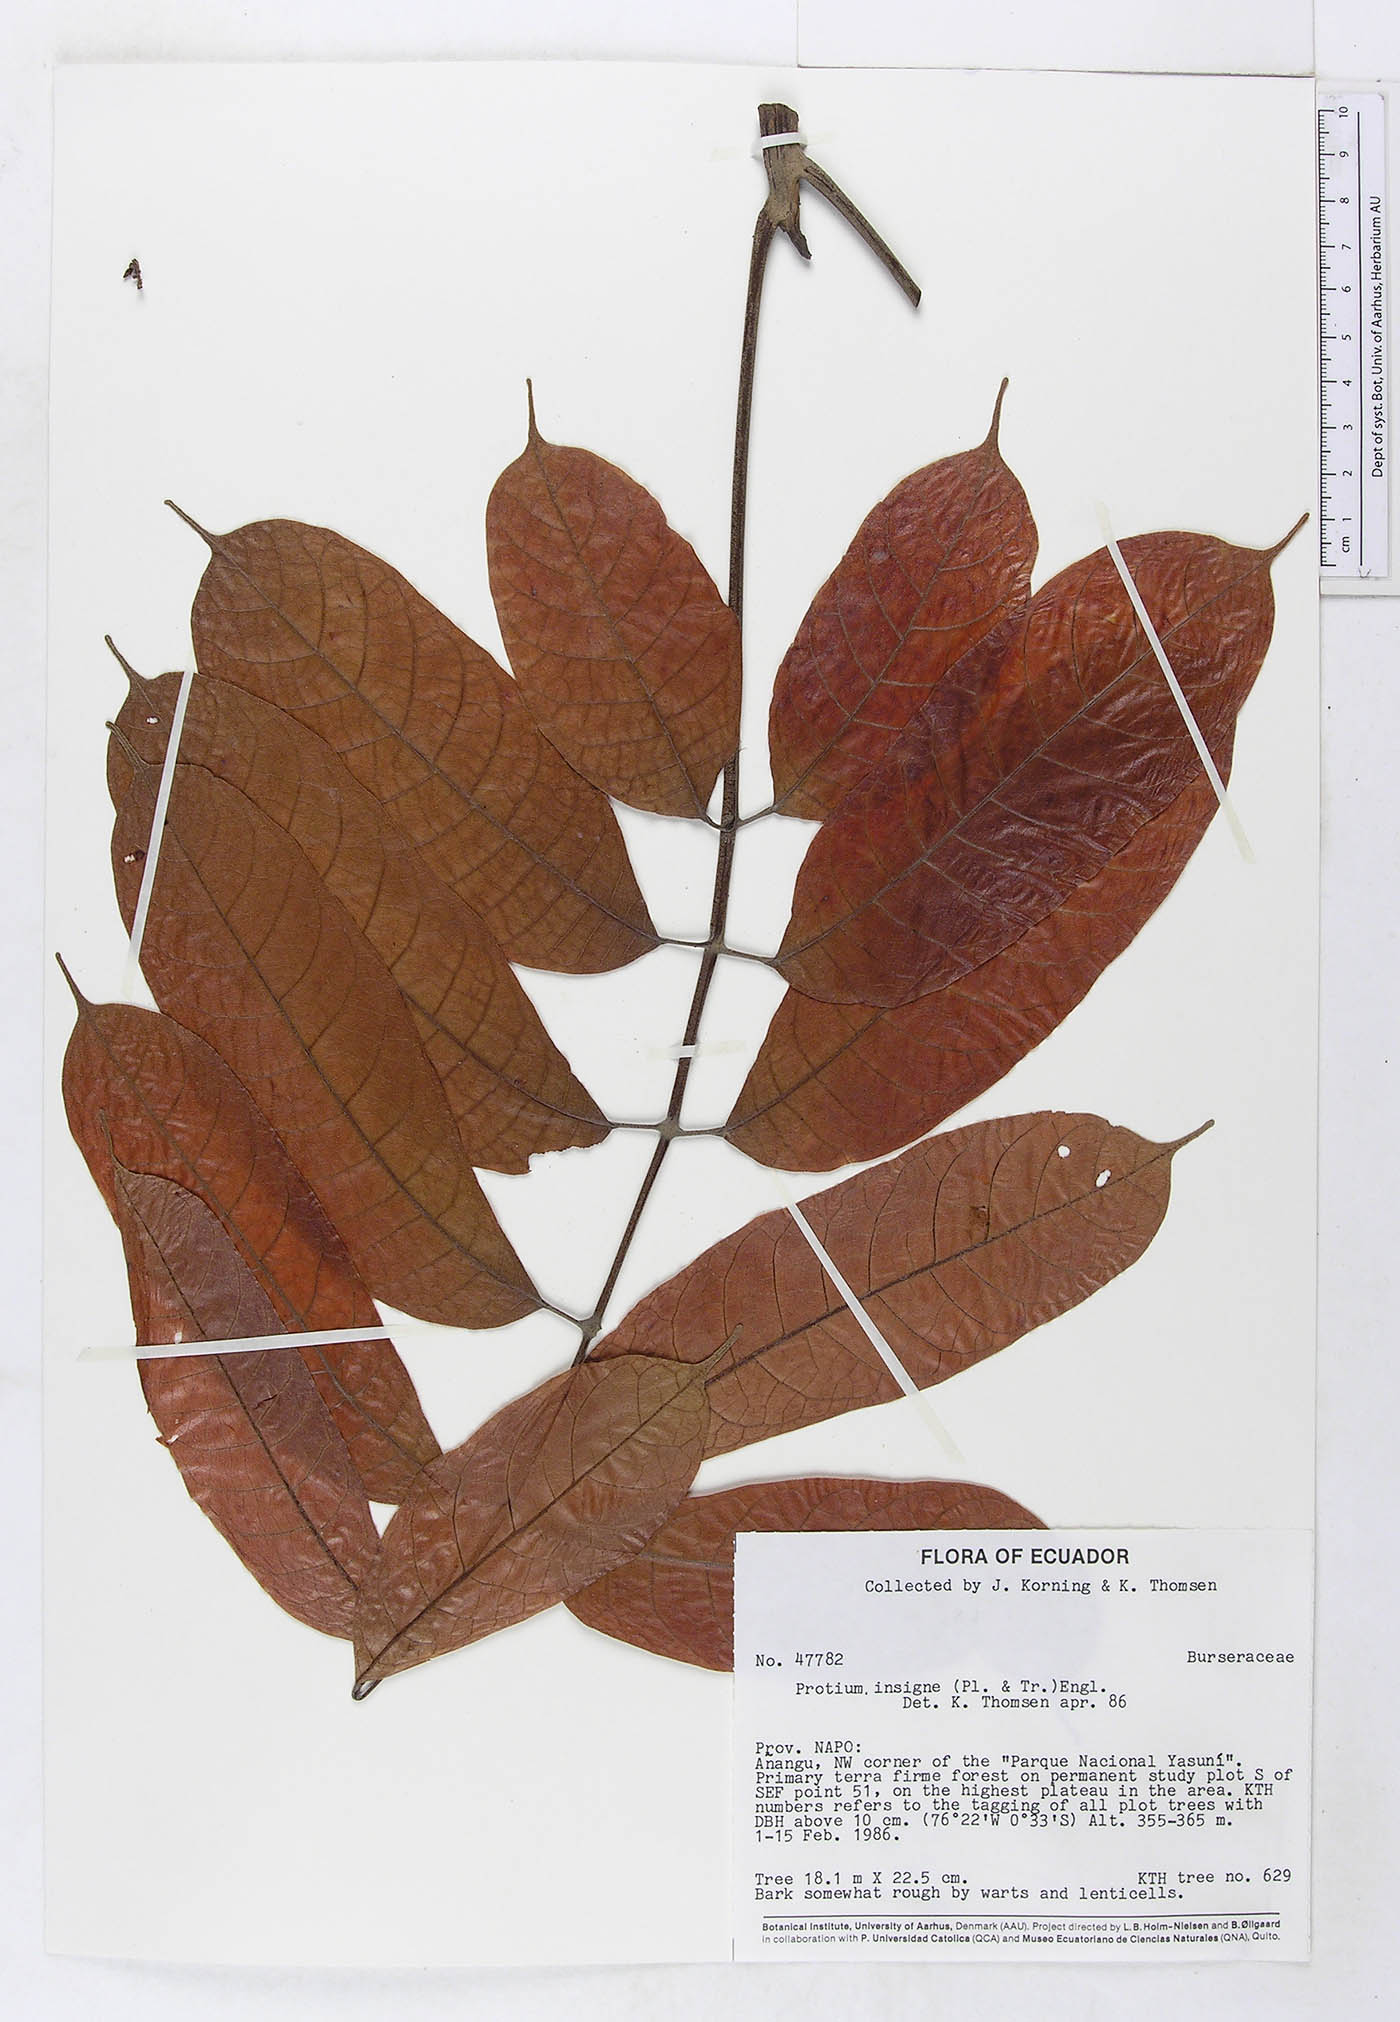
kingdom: Plantae
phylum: Tracheophyta
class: Magnoliopsida
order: Sapindales
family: Burseraceae
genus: Protium
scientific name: Protium sagotianum
